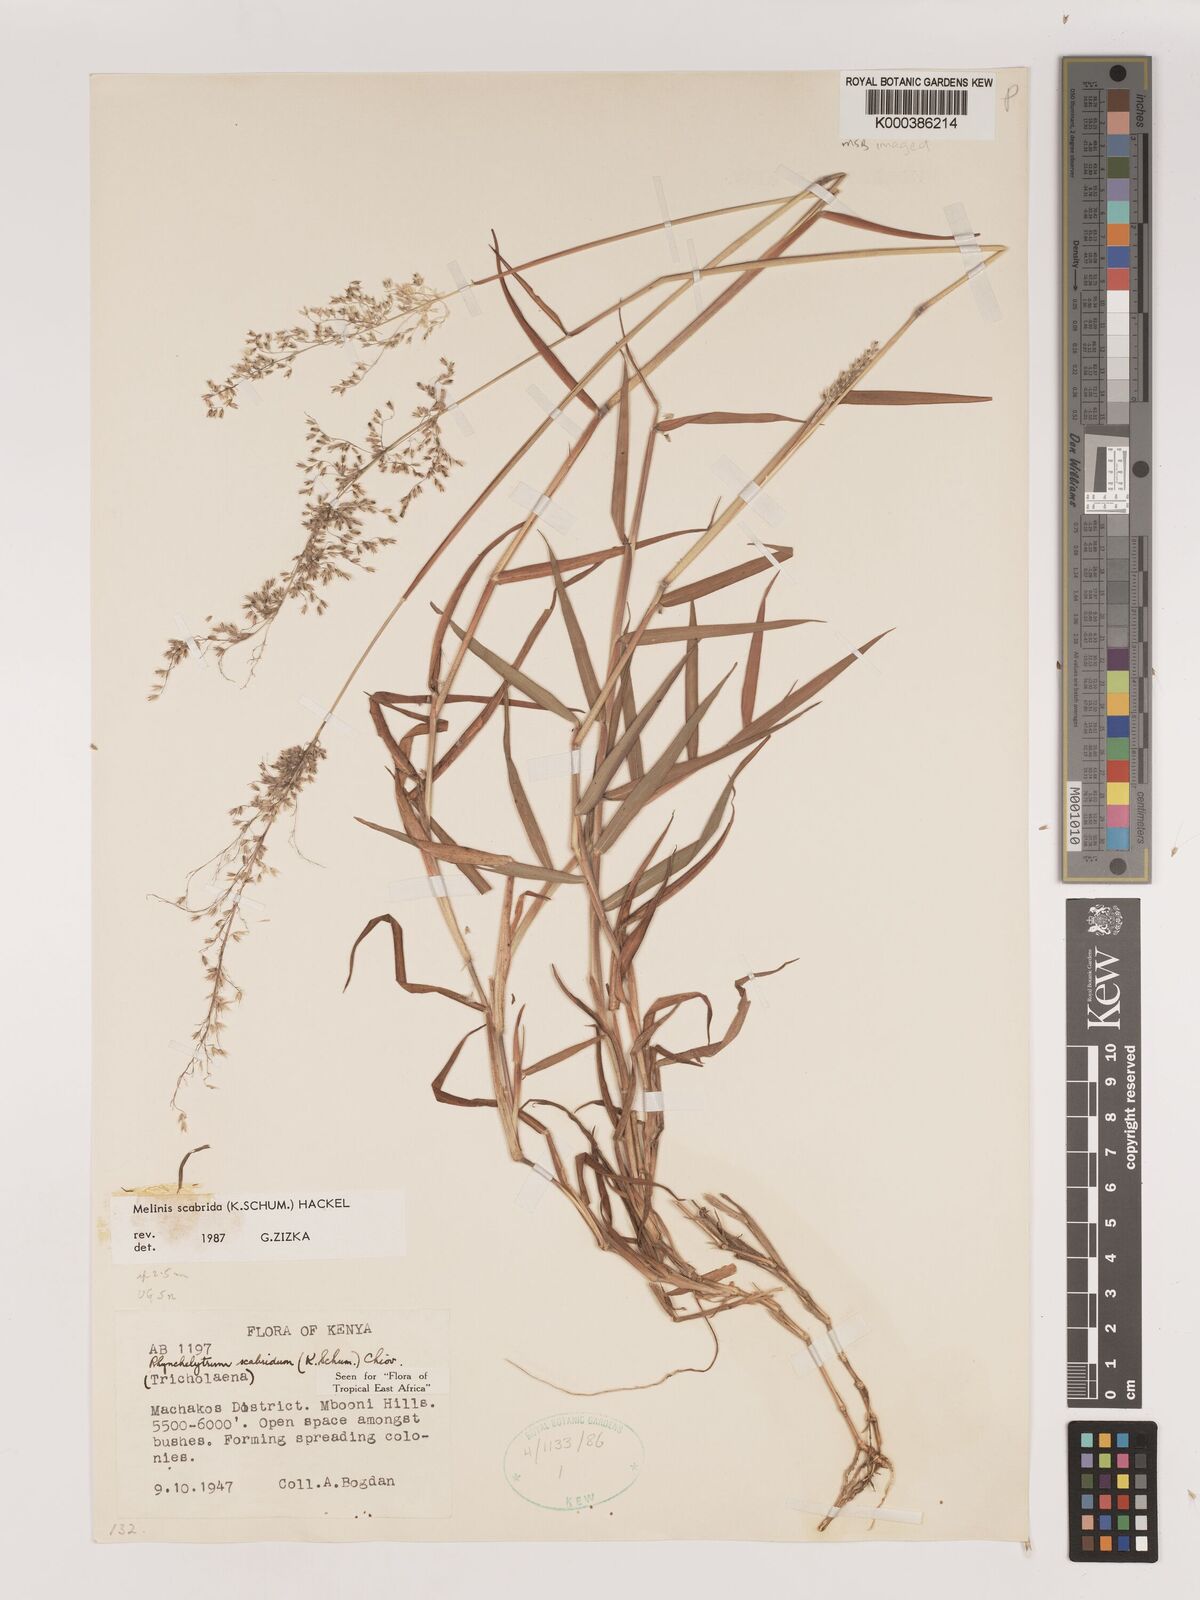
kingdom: Plantae
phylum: Tracheophyta
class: Liliopsida
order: Poales
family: Poaceae
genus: Melinis
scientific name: Melinis scabrida
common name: Millet grass
